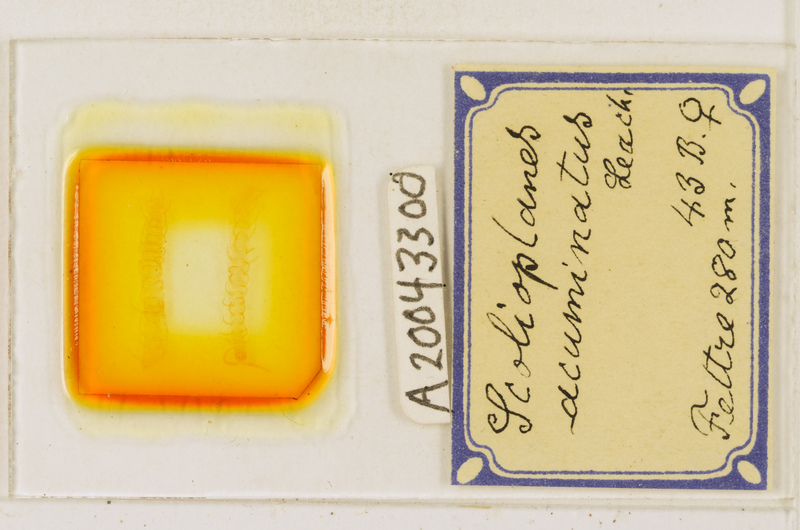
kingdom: Animalia
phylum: Arthropoda
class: Chilopoda
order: Geophilomorpha
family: Linotaeniidae
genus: Strigamia
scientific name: Strigamia acuminata
